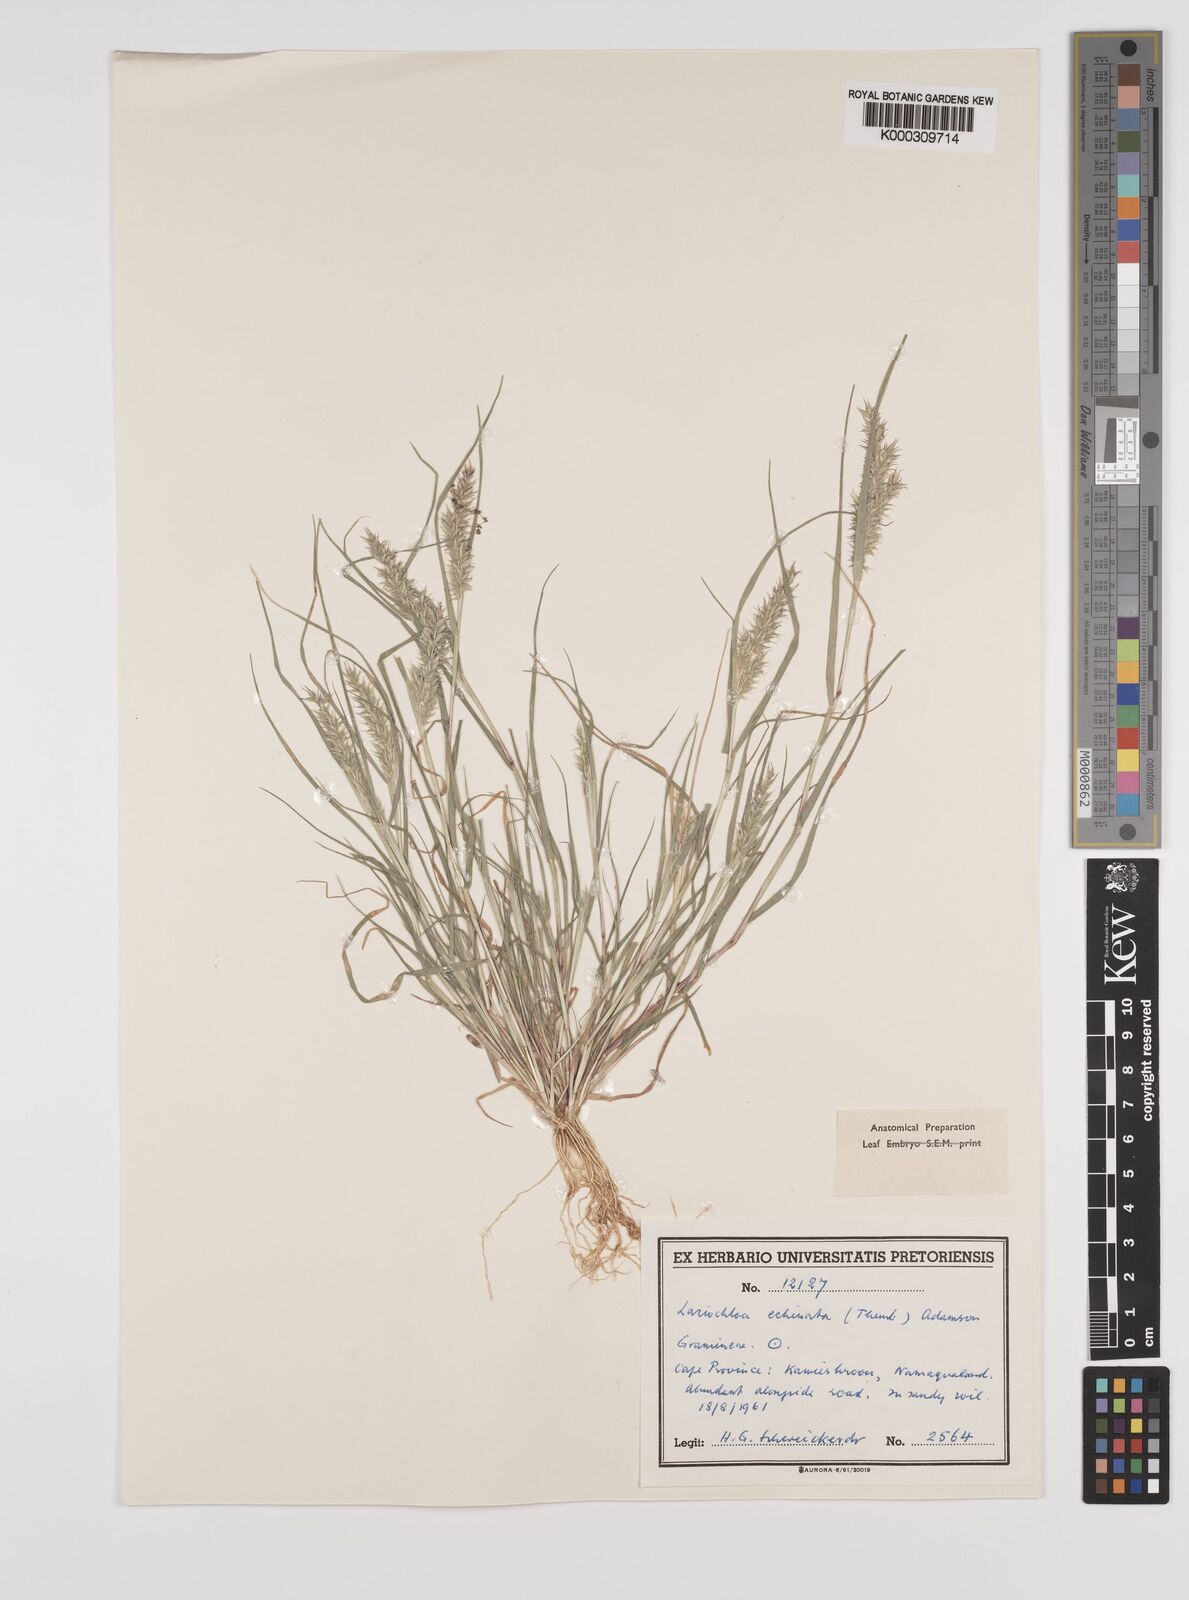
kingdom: Plantae
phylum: Tracheophyta
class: Liliopsida
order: Poales
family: Poaceae
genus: Tribolium
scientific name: Tribolium echinatum
